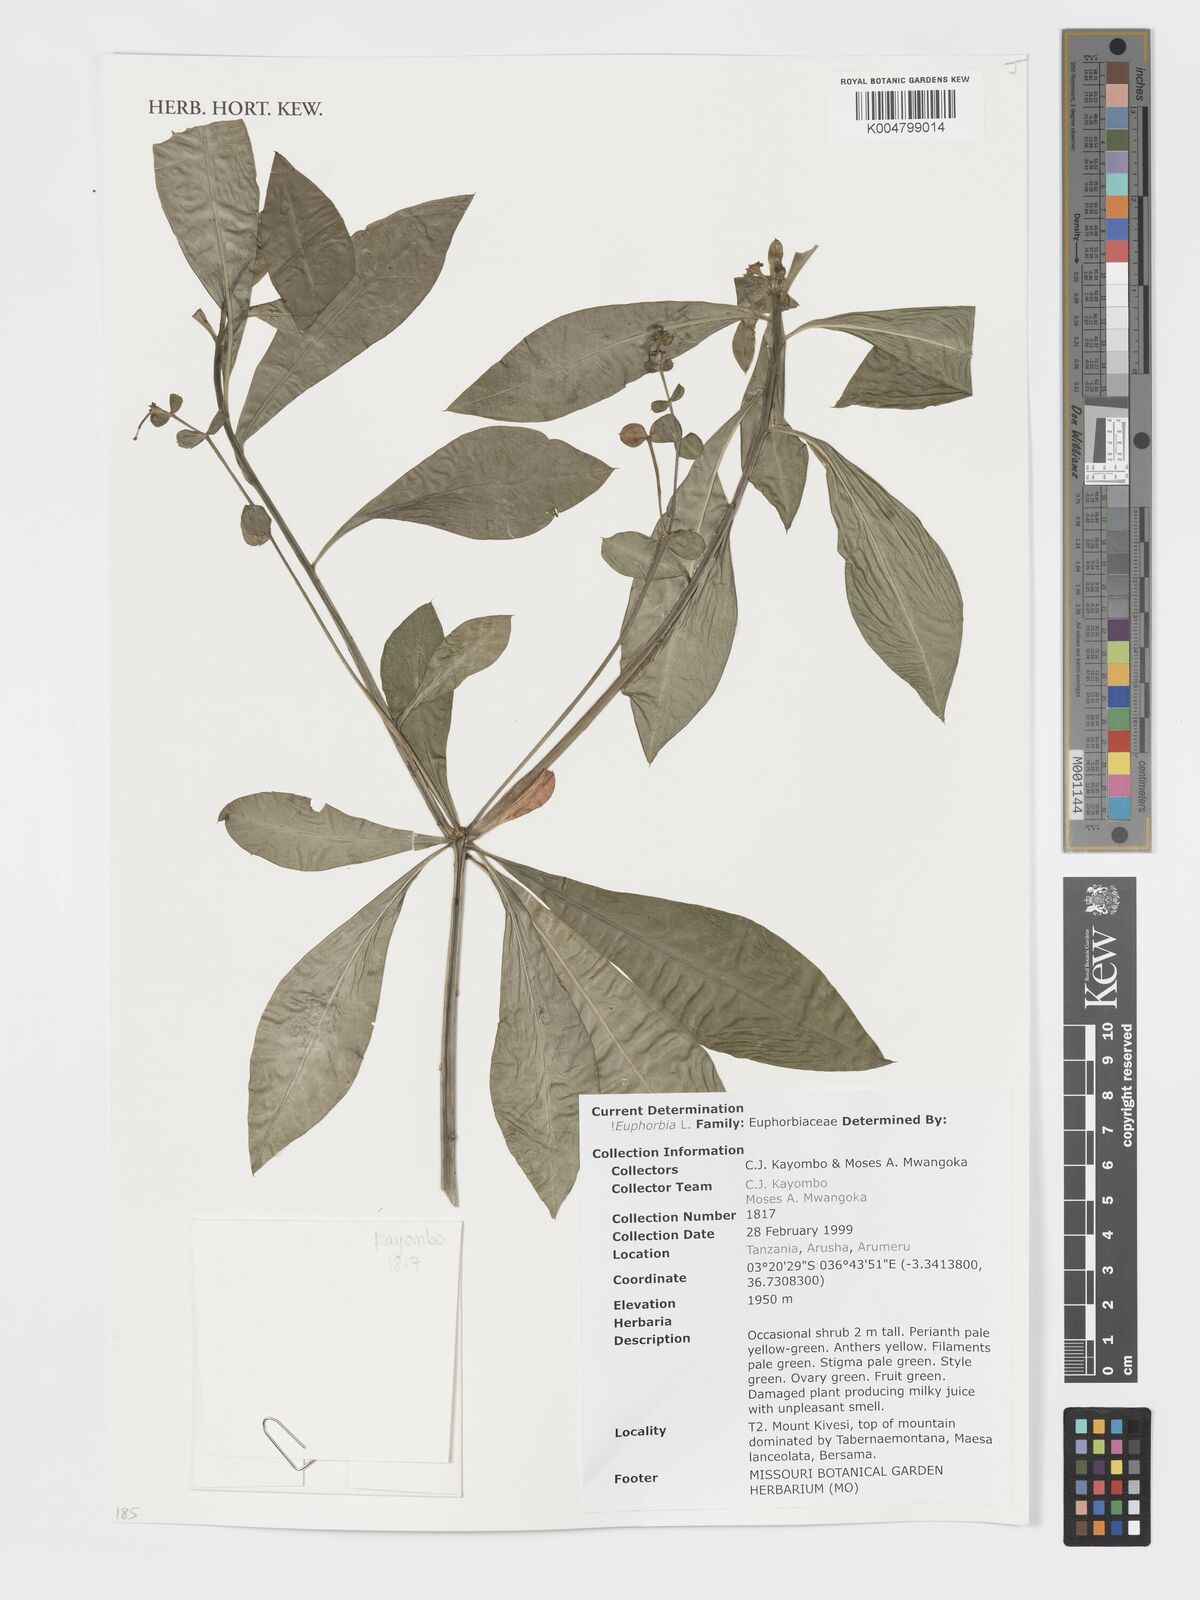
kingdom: Plantae
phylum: Tracheophyta
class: Magnoliopsida
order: Malpighiales
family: Euphorbiaceae
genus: Euphorbia
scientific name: Euphorbia
